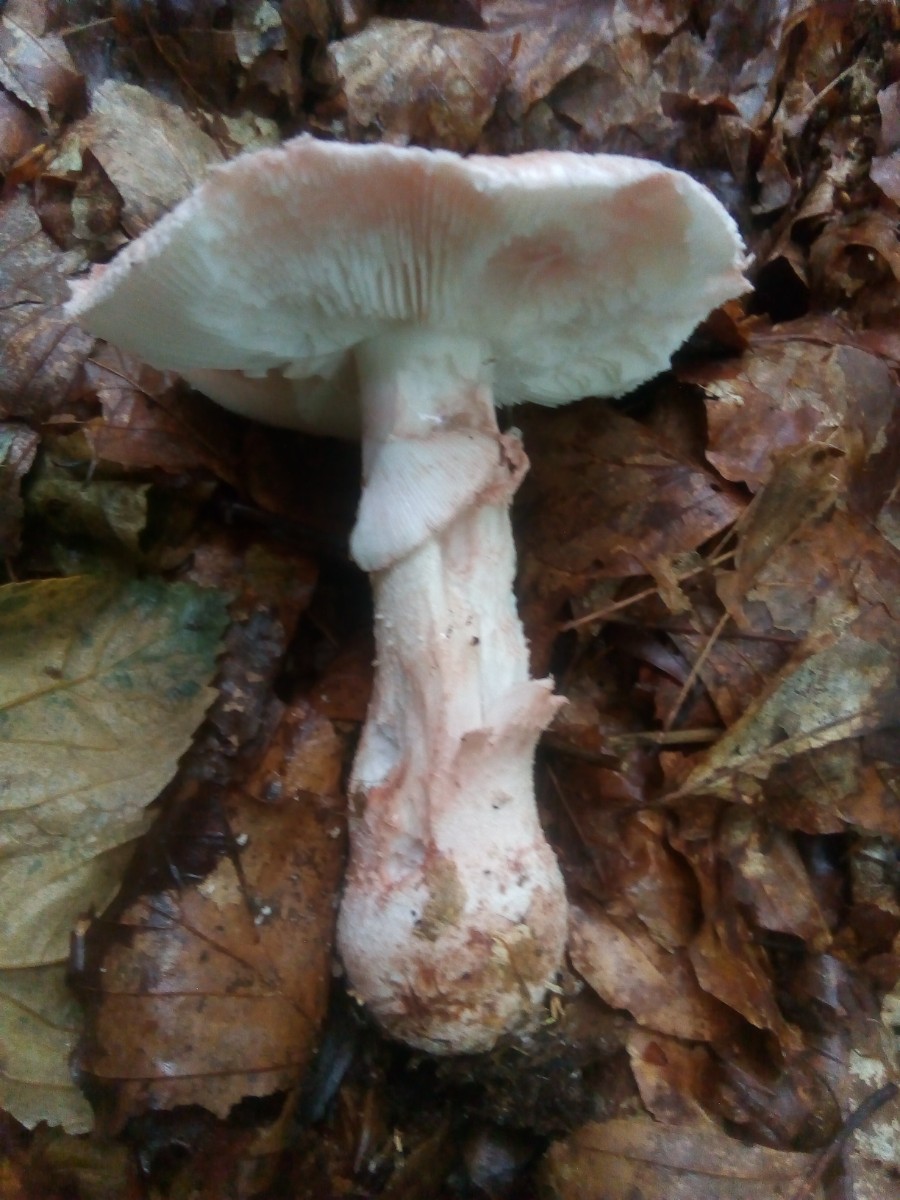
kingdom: Fungi
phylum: Basidiomycota
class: Agaricomycetes
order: Agaricales
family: Amanitaceae
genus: Amanita
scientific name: Amanita rubescens
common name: rødmende fluesvamp
